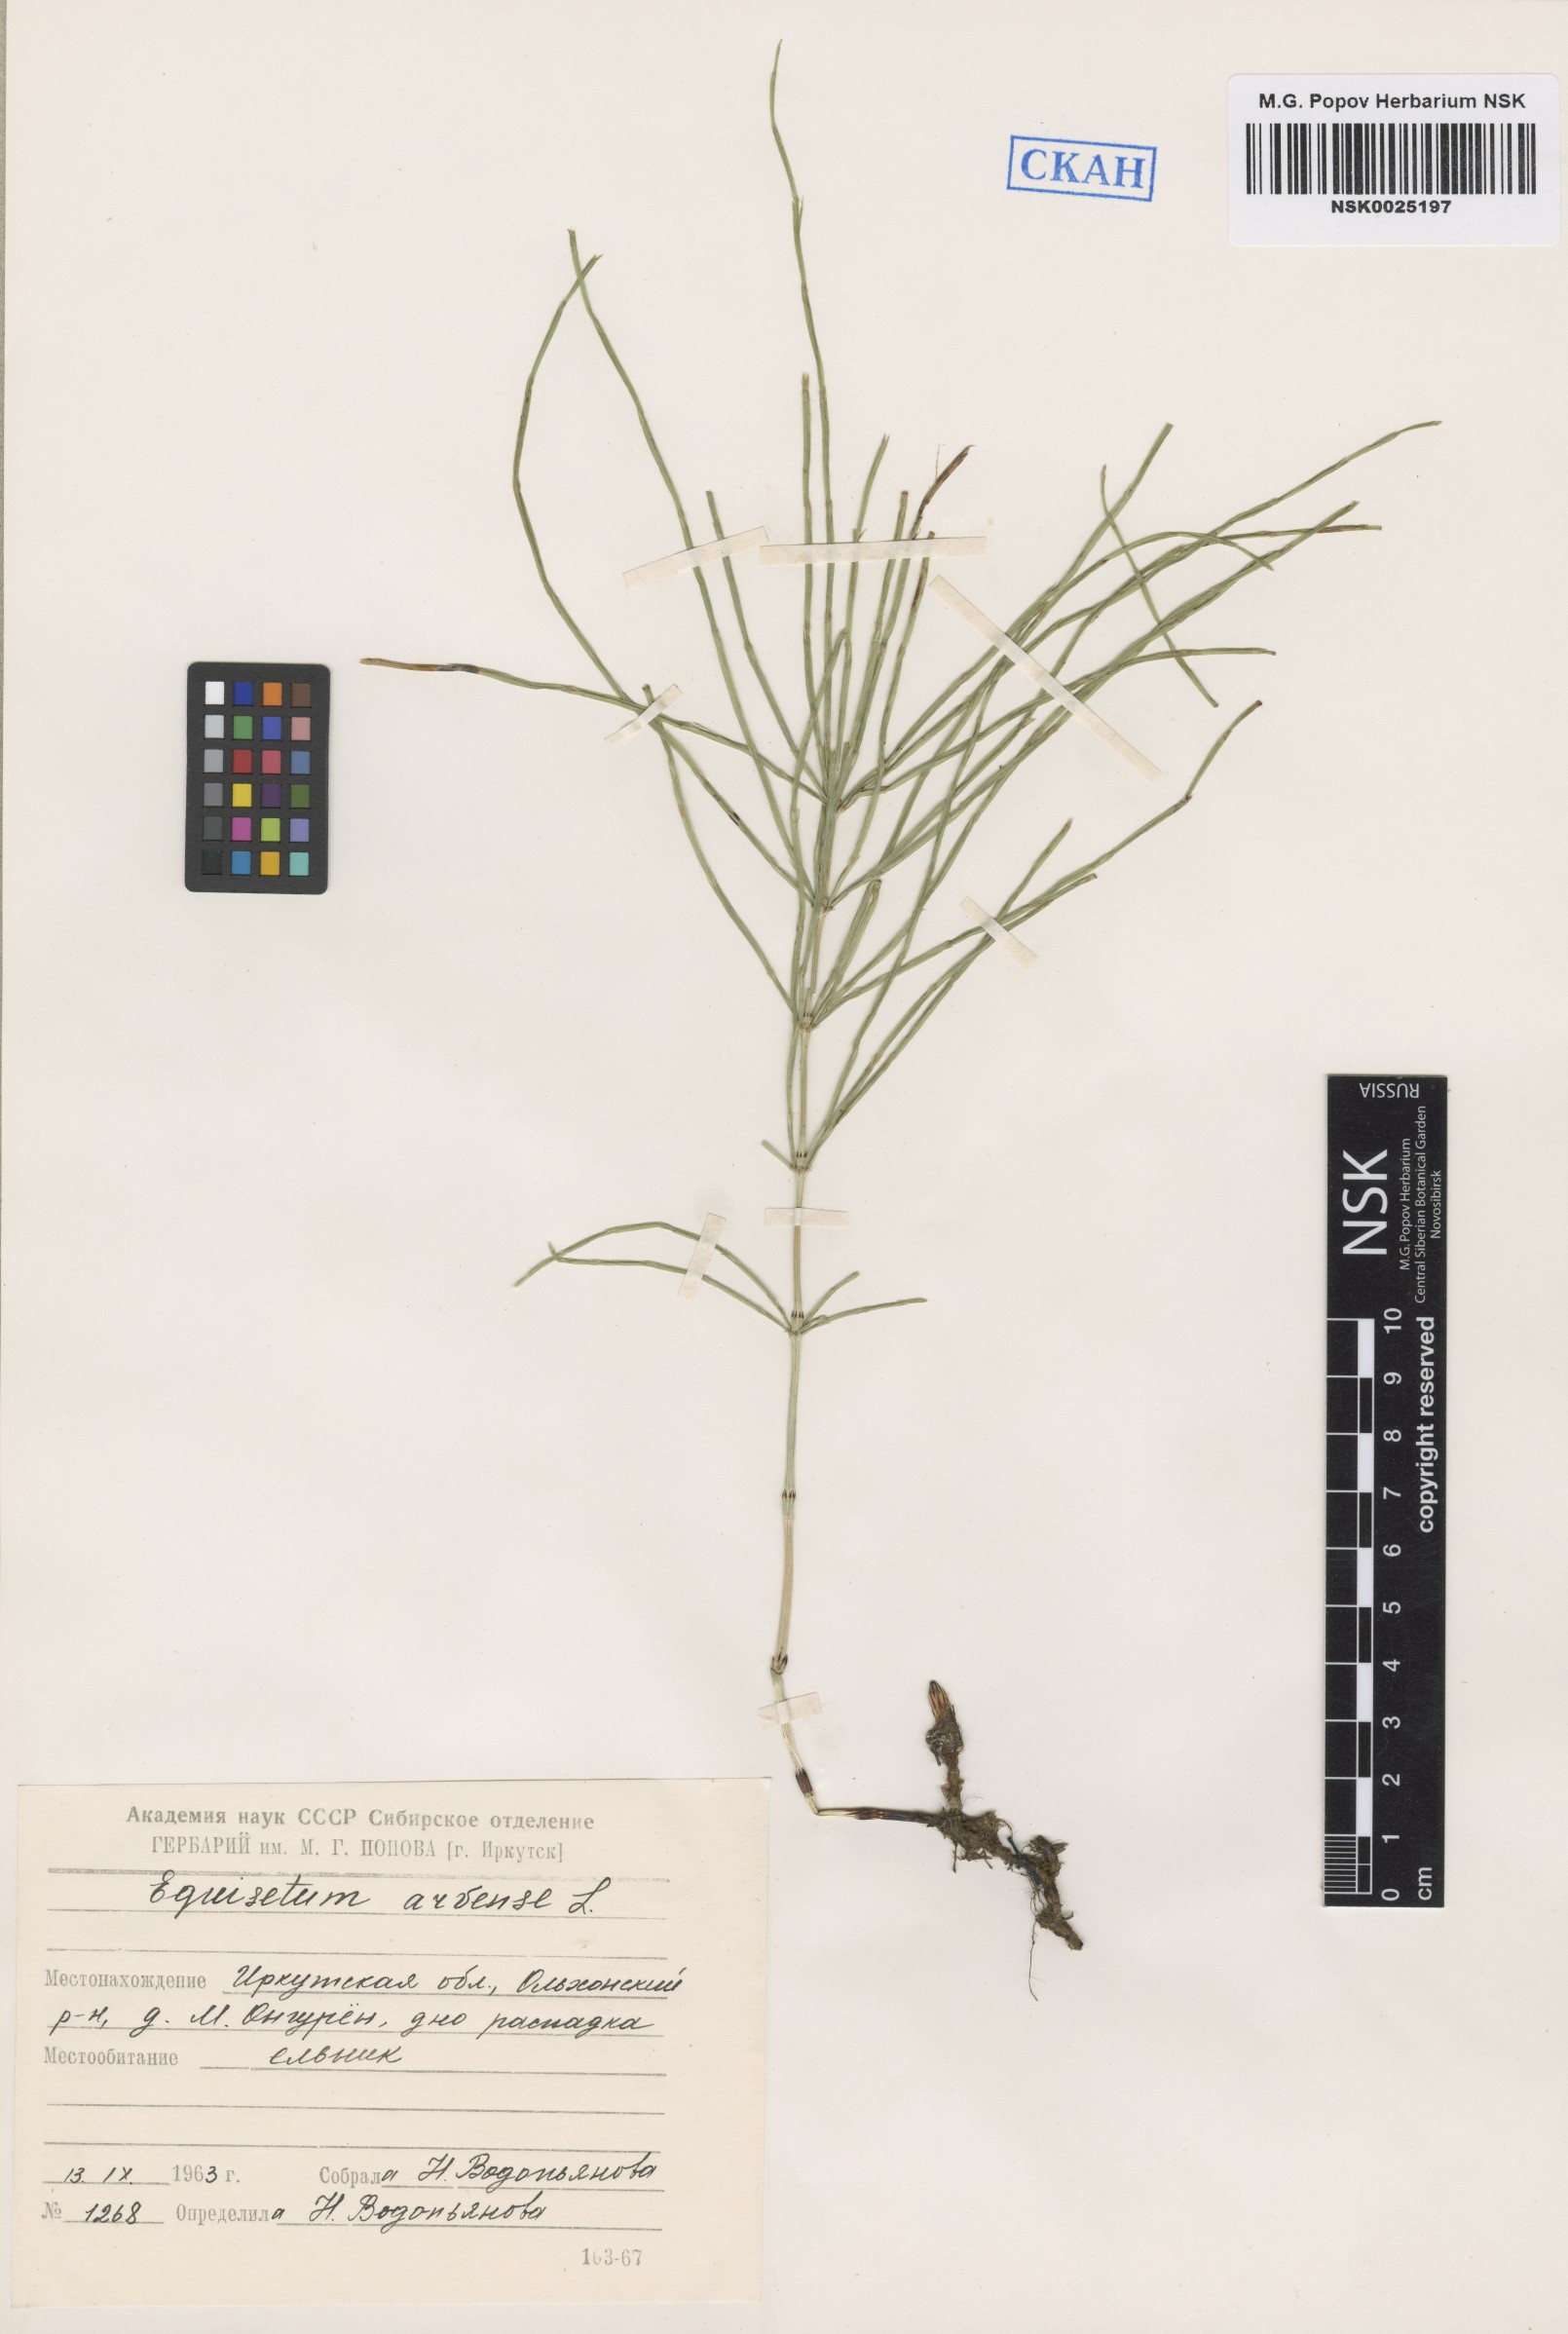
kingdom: Plantae
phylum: Tracheophyta
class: Polypodiopsida
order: Equisetales
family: Equisetaceae
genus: Equisetum
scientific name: Equisetum arvense
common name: Field horsetail
